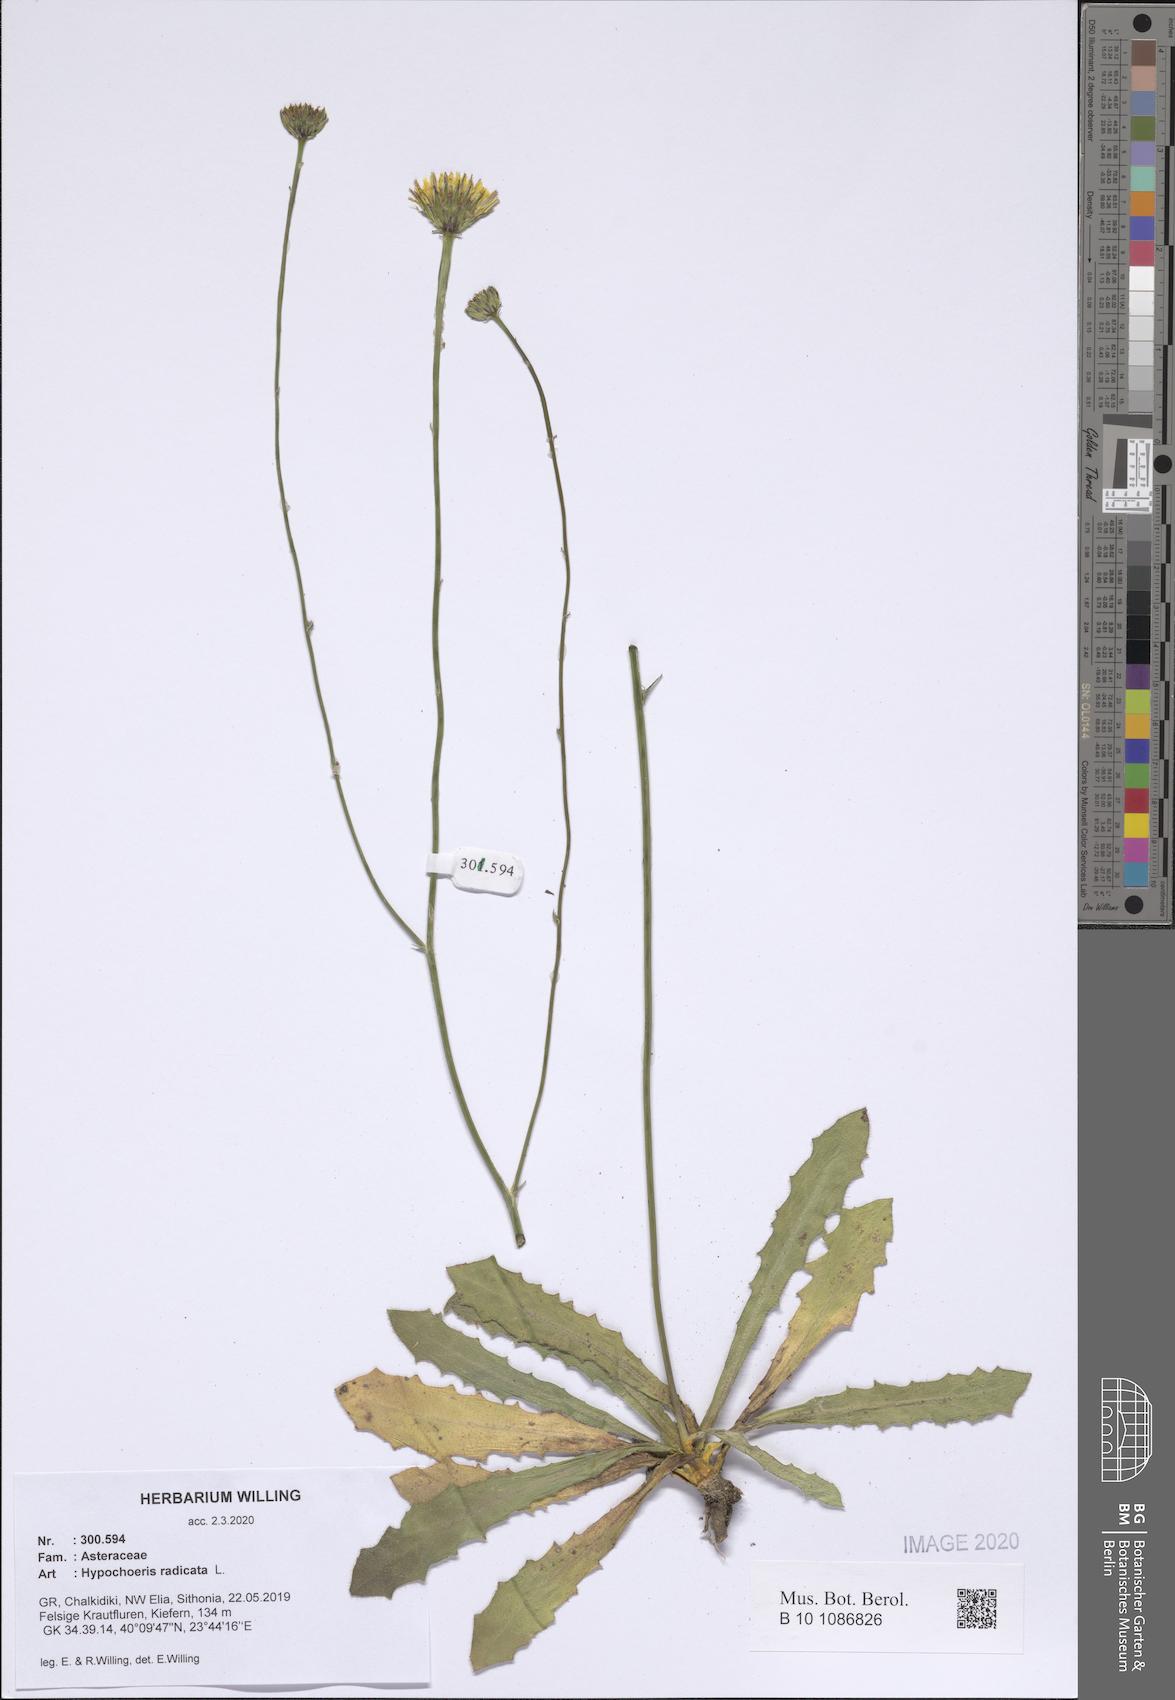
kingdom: Plantae
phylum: Tracheophyta
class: Magnoliopsida
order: Asterales
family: Asteraceae
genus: Hypochaeris
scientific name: Hypochaeris radicata
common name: Flatweed
